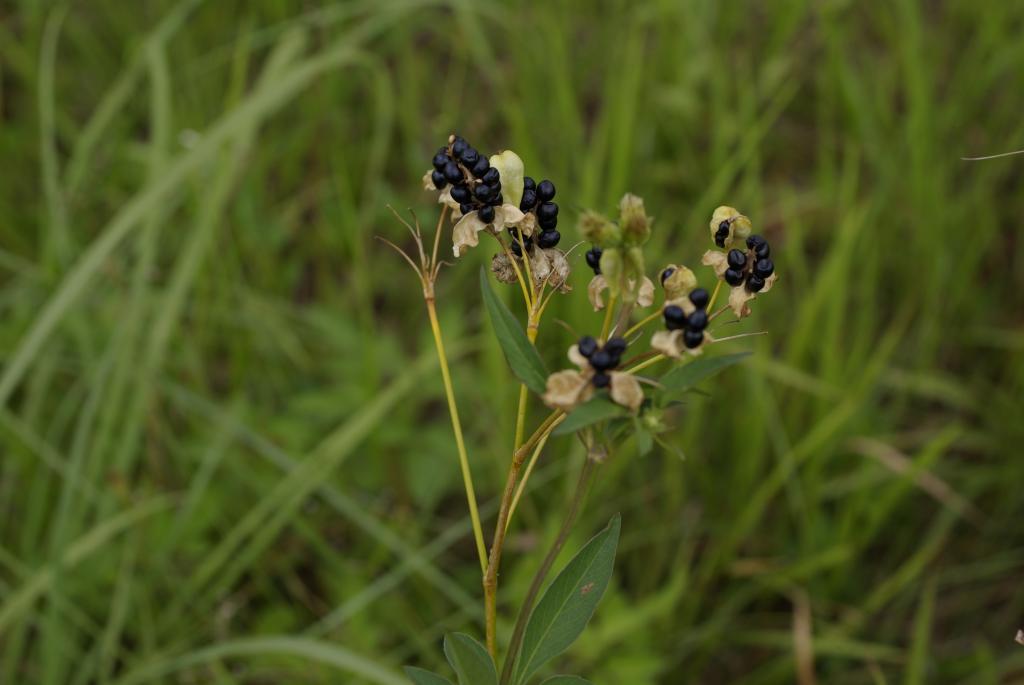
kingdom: Plantae
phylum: Tracheophyta
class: Liliopsida
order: Asparagales
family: Iridaceae
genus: Iris
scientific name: Iris domestica
